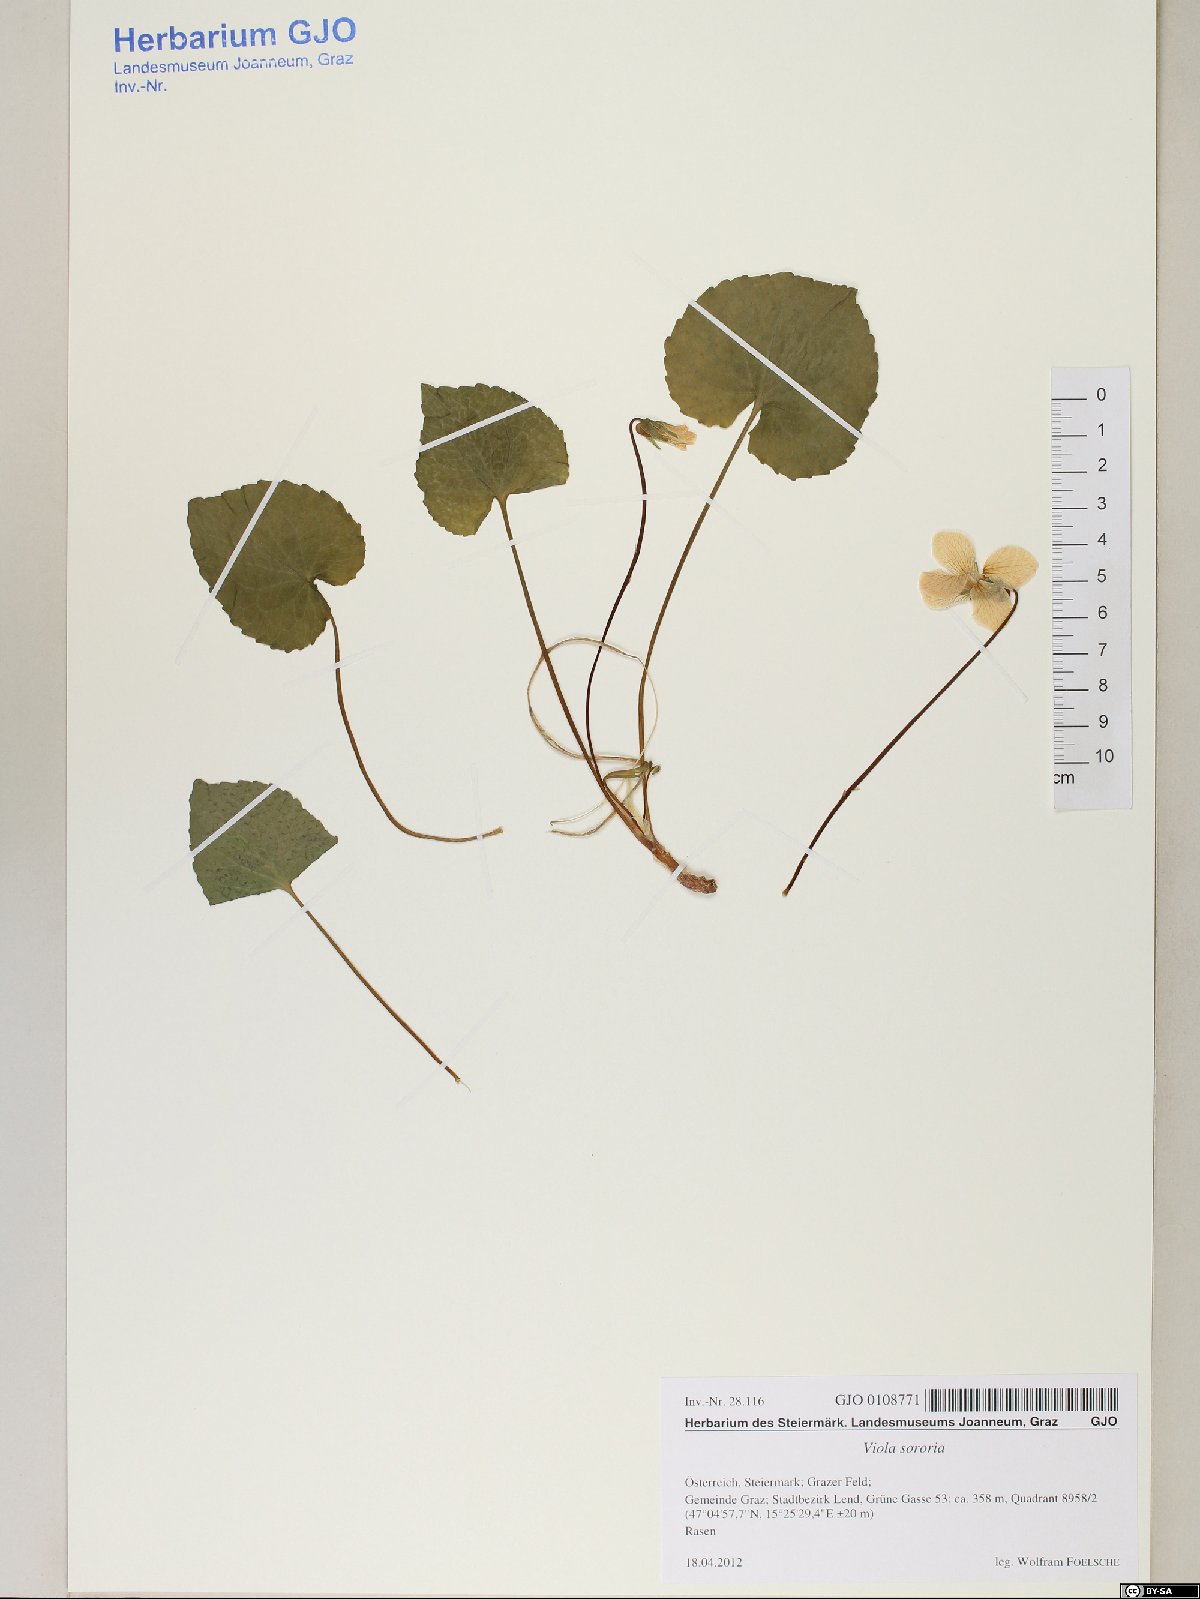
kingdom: Plantae
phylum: Tracheophyta
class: Magnoliopsida
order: Malpighiales
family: Violaceae
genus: Viola
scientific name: Viola sororia
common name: Dooryard violet
